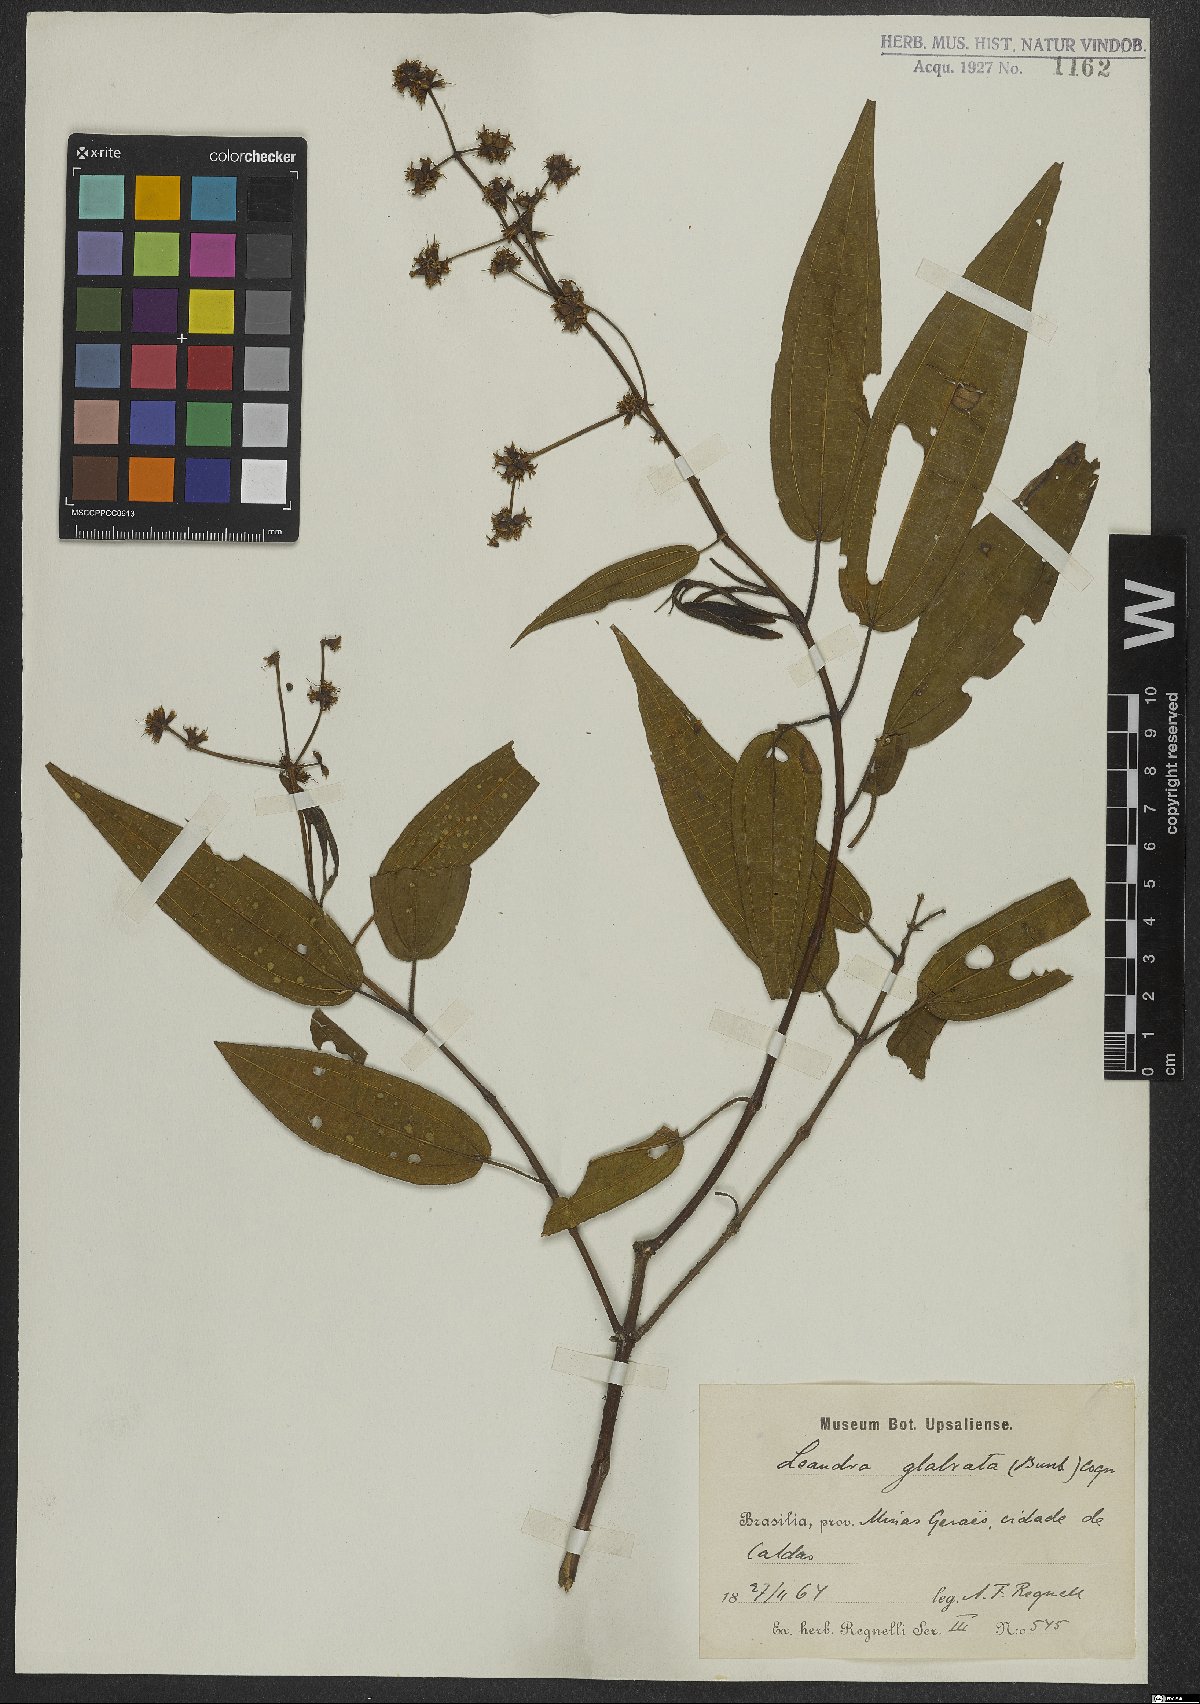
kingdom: Plantae
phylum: Tracheophyta
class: Magnoliopsida
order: Myrtales
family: Melastomataceae
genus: Miconia
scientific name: Miconia dolichostachya
